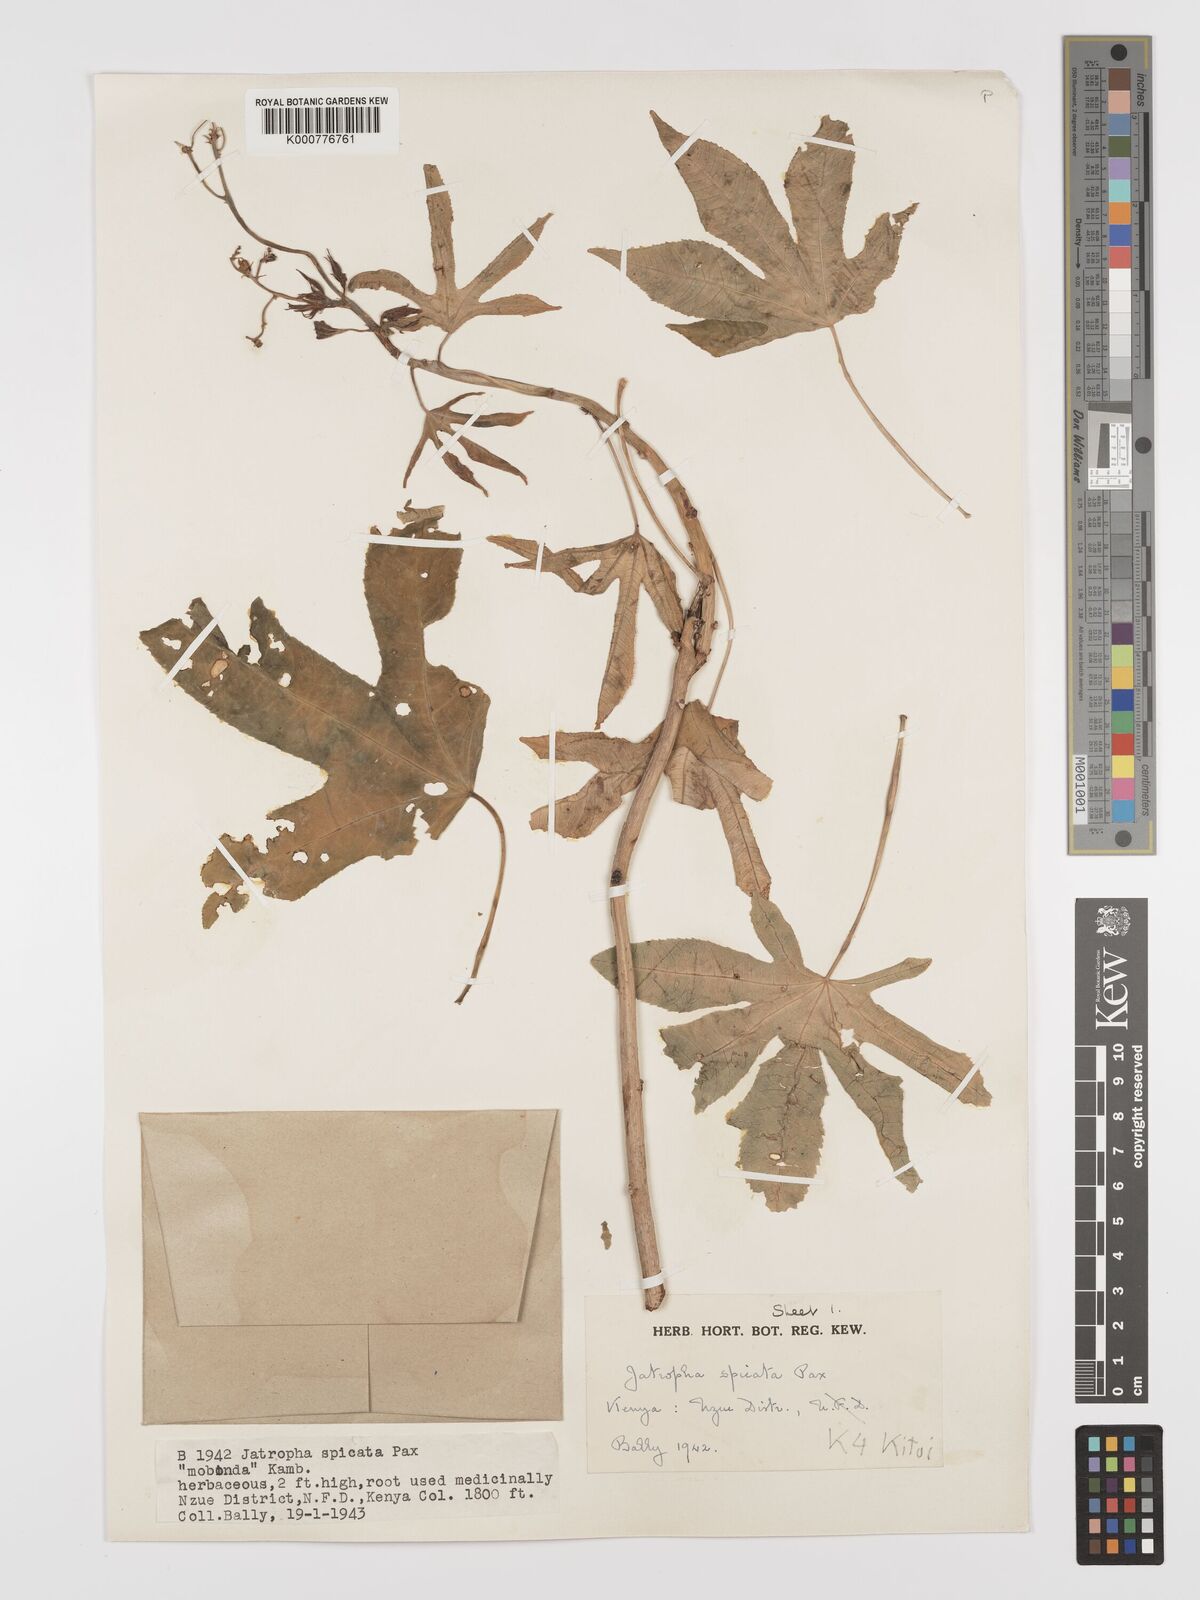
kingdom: Plantae
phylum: Tracheophyta
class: Magnoliopsida
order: Malpighiales
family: Euphorbiaceae
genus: Jatropha
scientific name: Jatropha spicata
